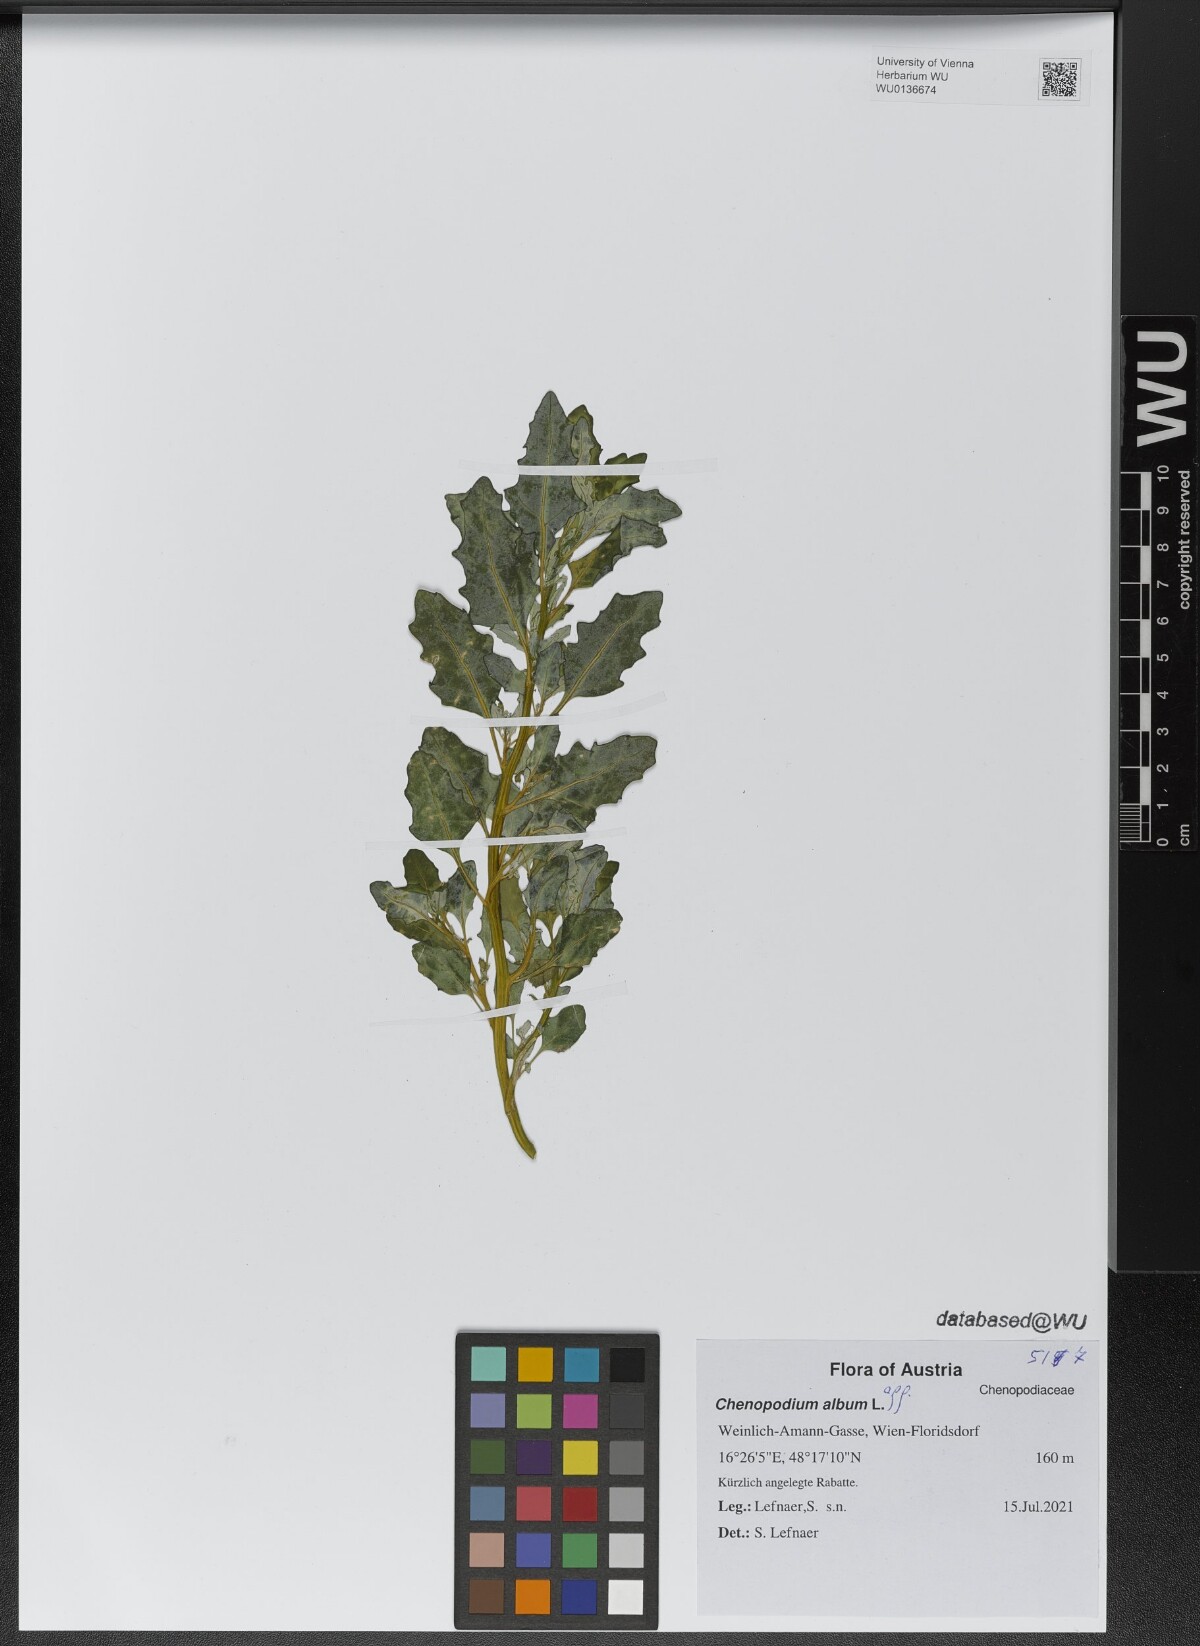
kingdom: Plantae
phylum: Tracheophyta
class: Magnoliopsida
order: Caryophyllales
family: Amaranthaceae
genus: Chenopodium
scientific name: Chenopodium album
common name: Fat-hen
